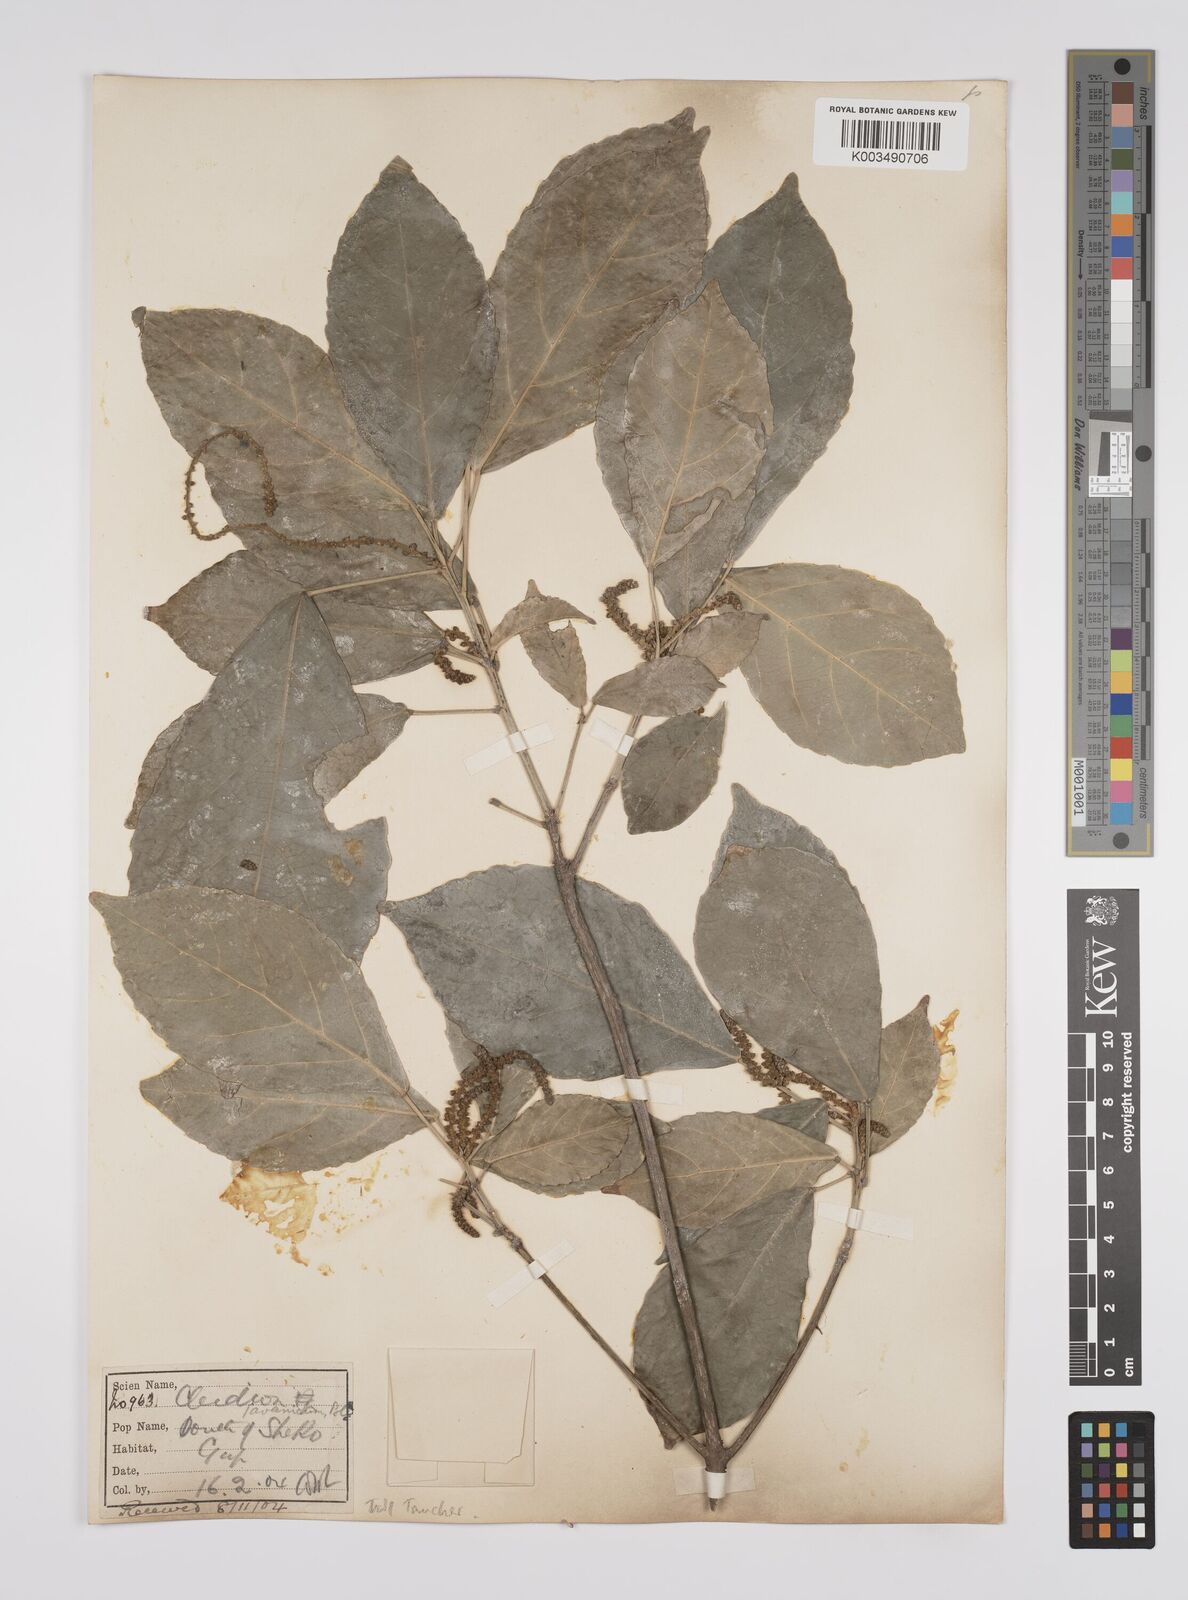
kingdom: Plantae
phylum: Tracheophyta
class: Magnoliopsida
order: Malpighiales
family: Euphorbiaceae
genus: Acalypha
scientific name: Acalypha spiciflora
